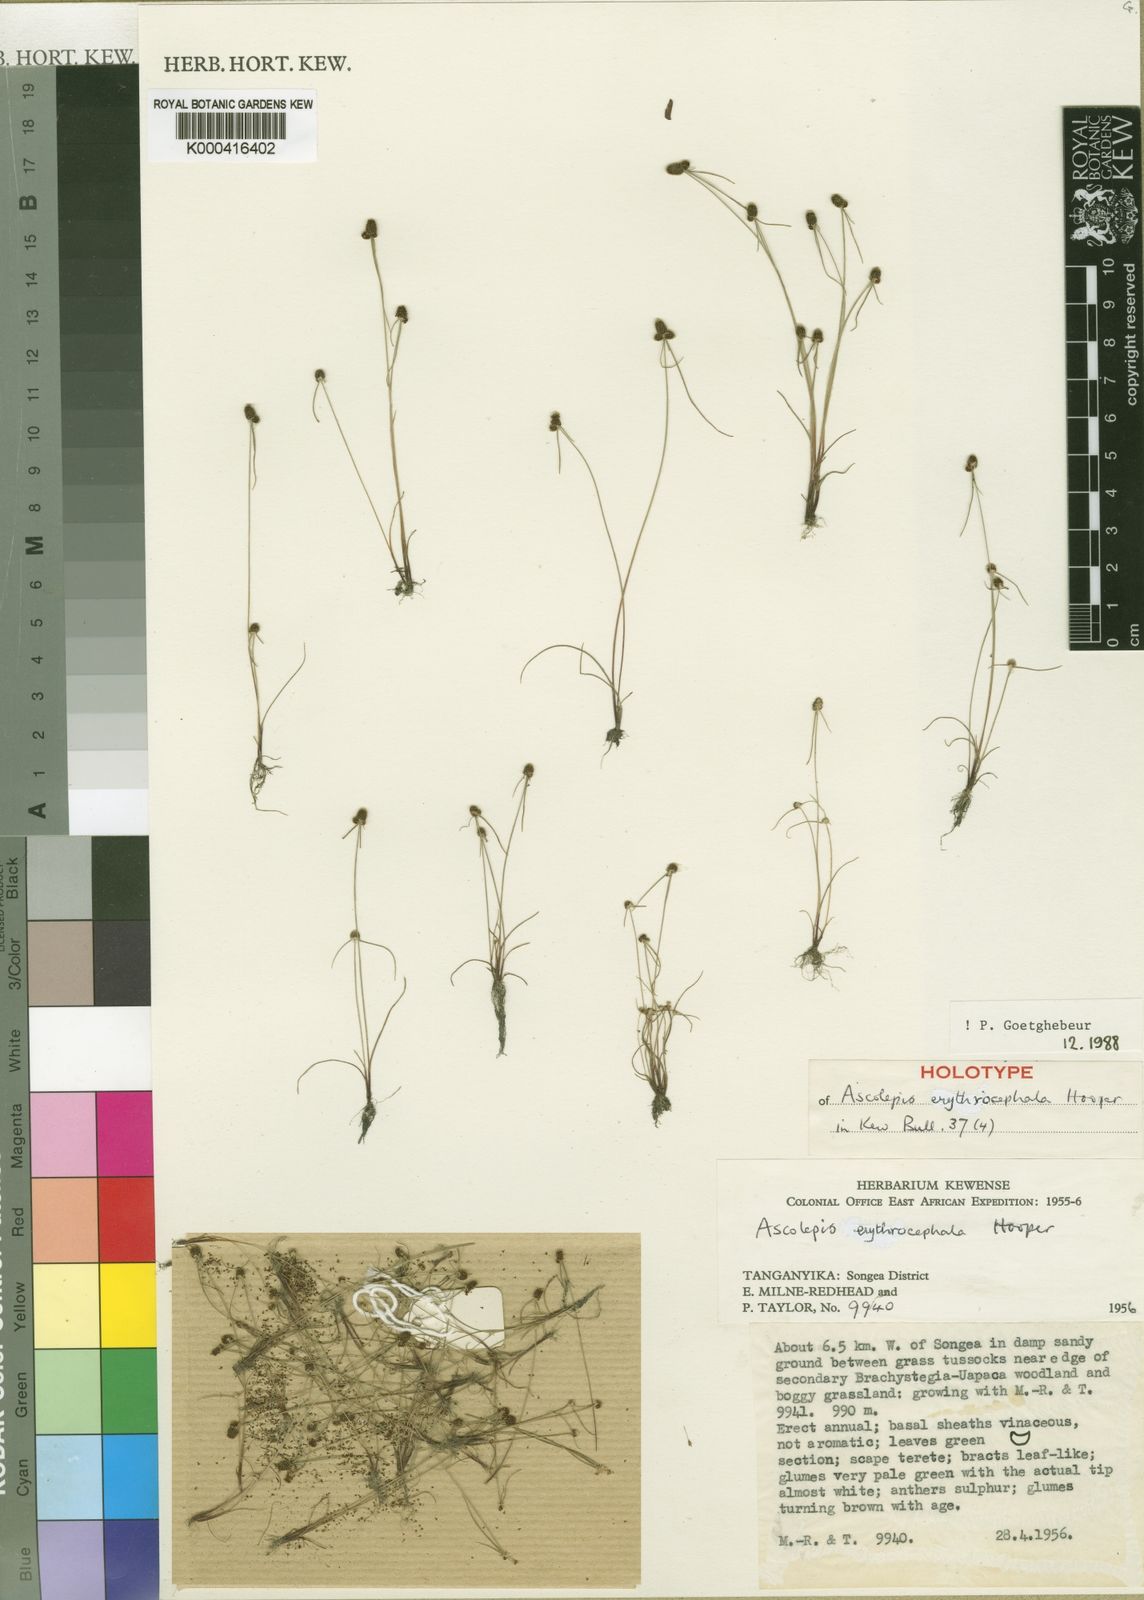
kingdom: Plantae
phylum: Tracheophyta
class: Liliopsida
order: Poales
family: Cyperaceae
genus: Cyperus
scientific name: Cyperus erythrocephalus
